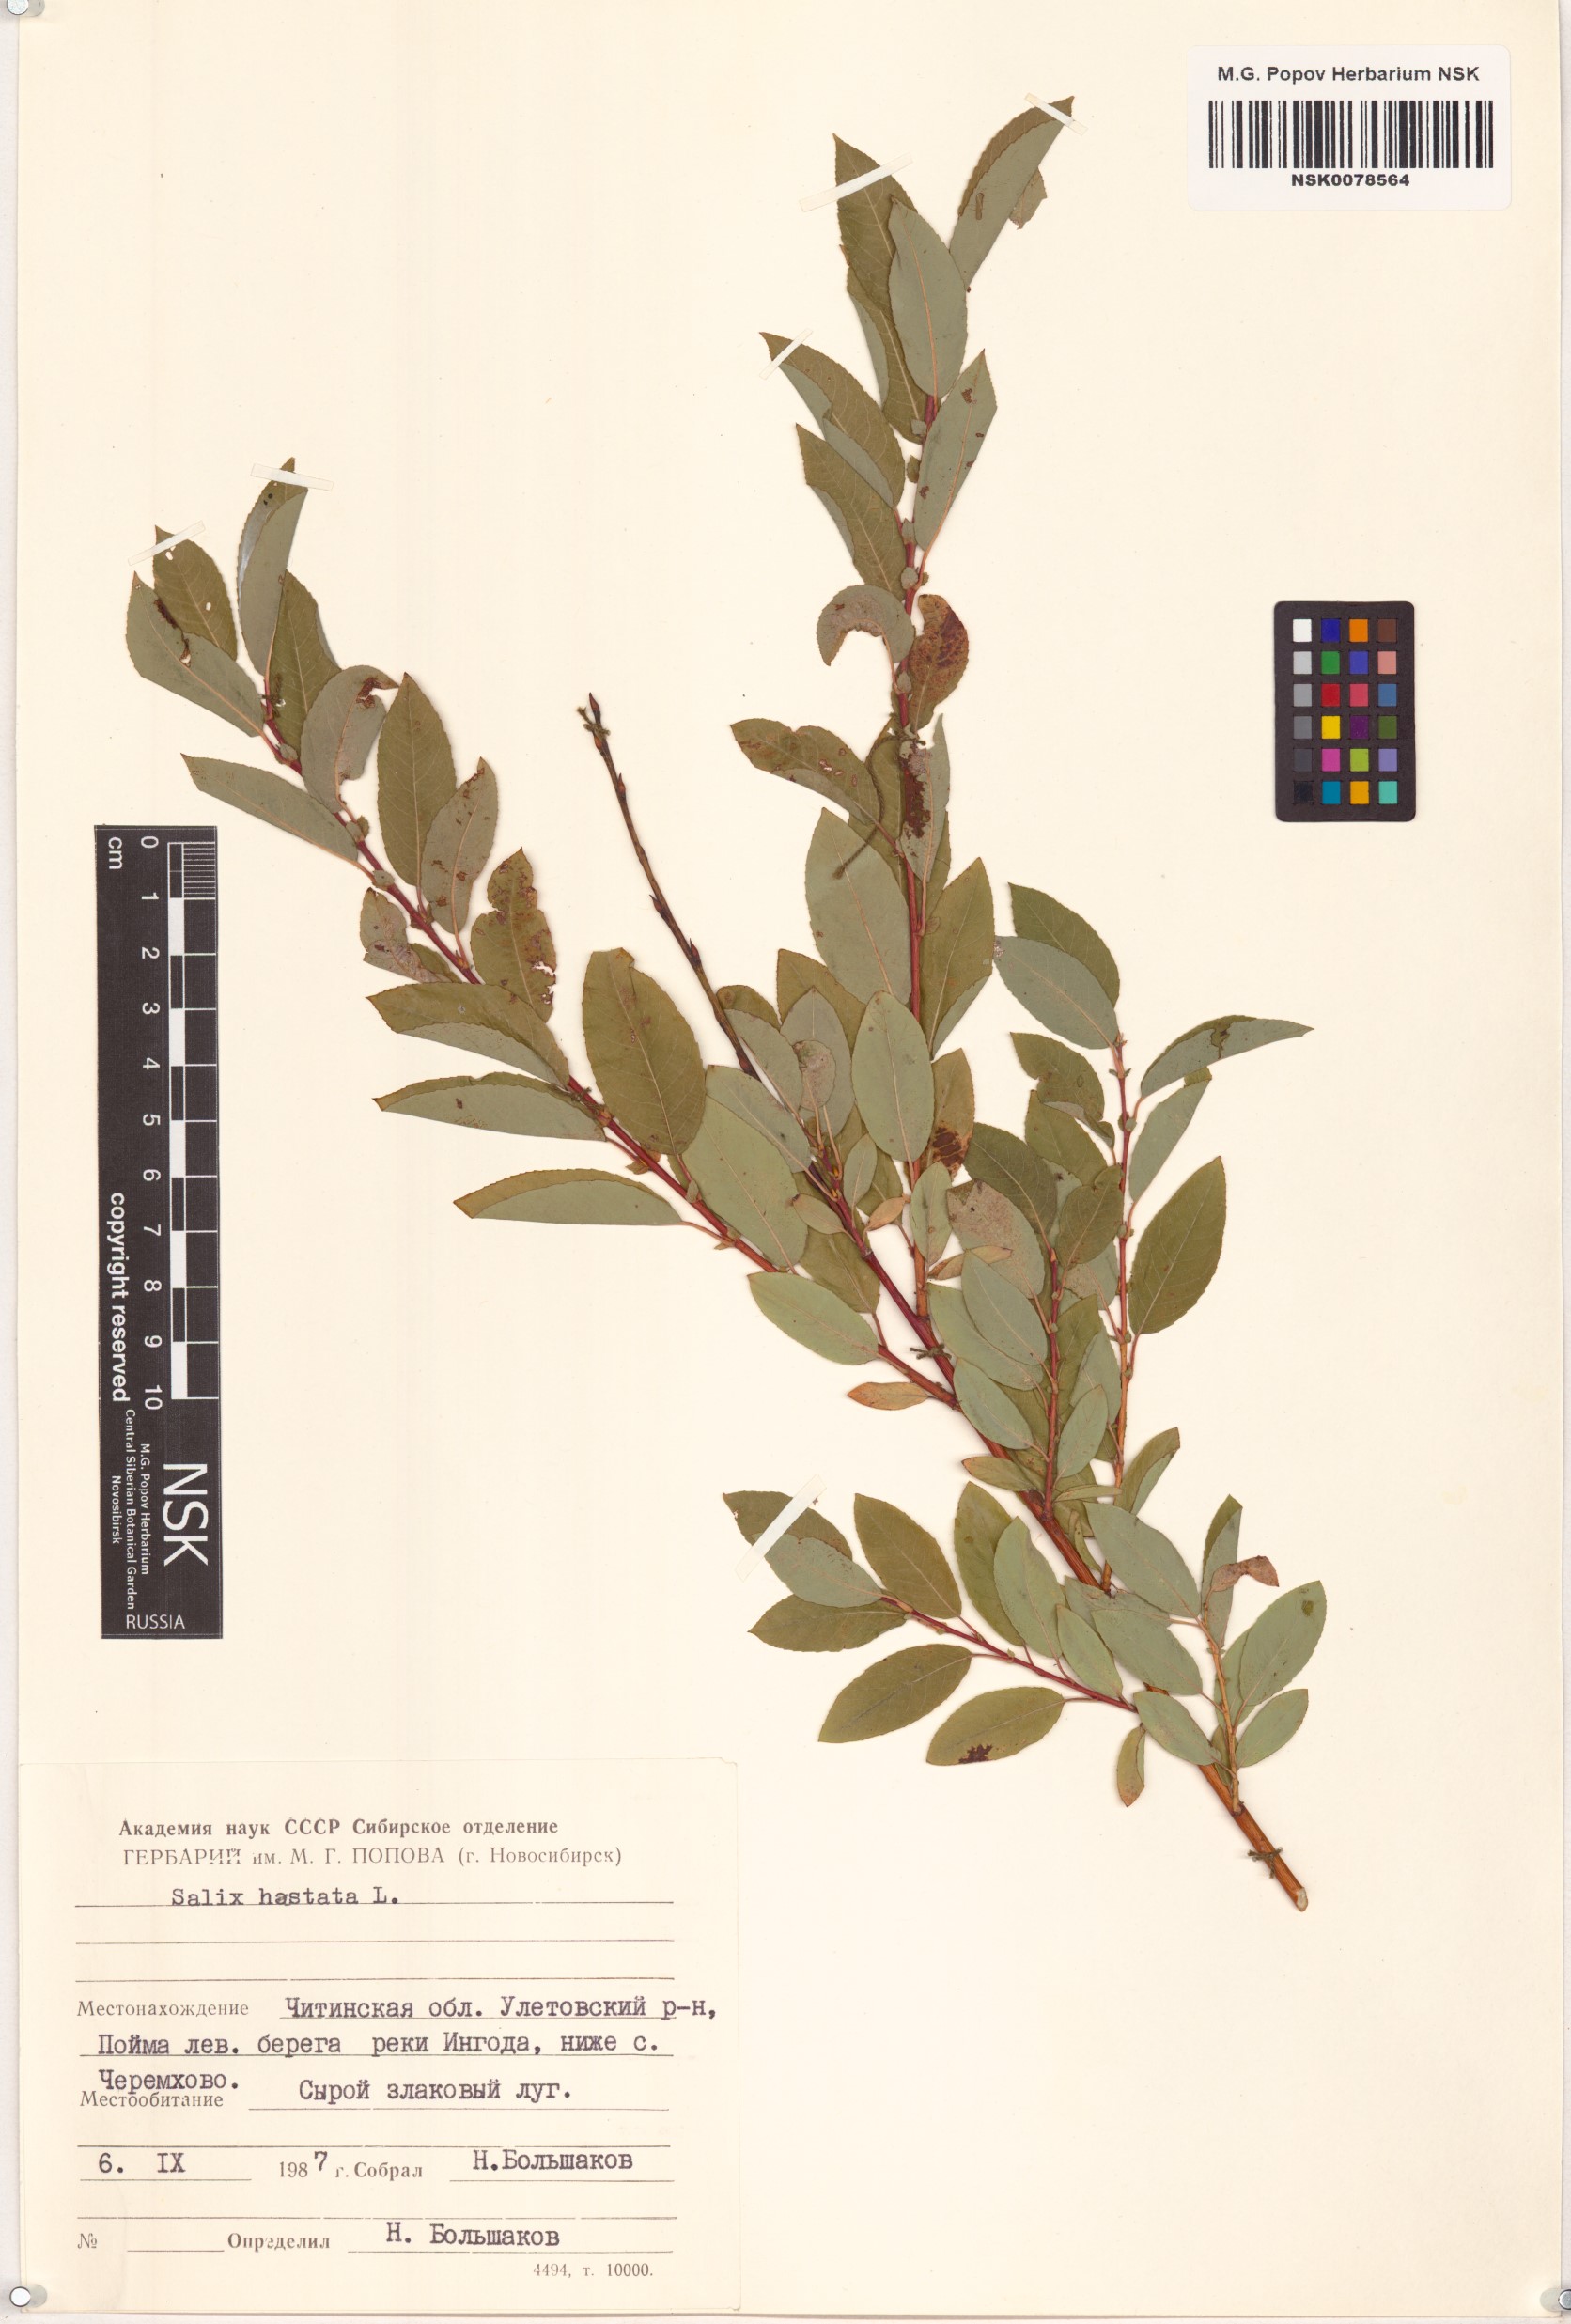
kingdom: Plantae
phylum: Tracheophyta
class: Magnoliopsida
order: Malpighiales
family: Salicaceae
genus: Salix
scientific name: Salix hastata
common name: Halberd willow
